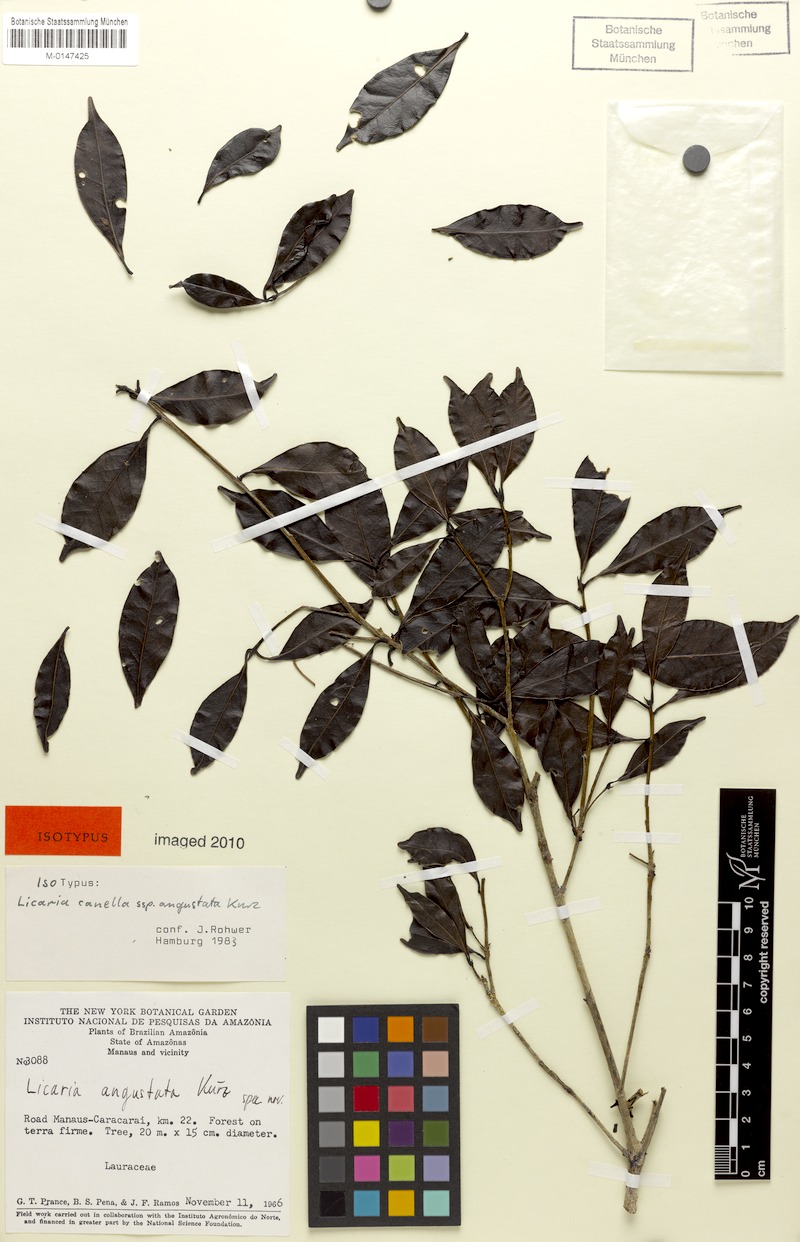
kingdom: Plantae
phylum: Tracheophyta
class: Magnoliopsida
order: Laurales
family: Lauraceae
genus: Licaria
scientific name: Licaria canella
